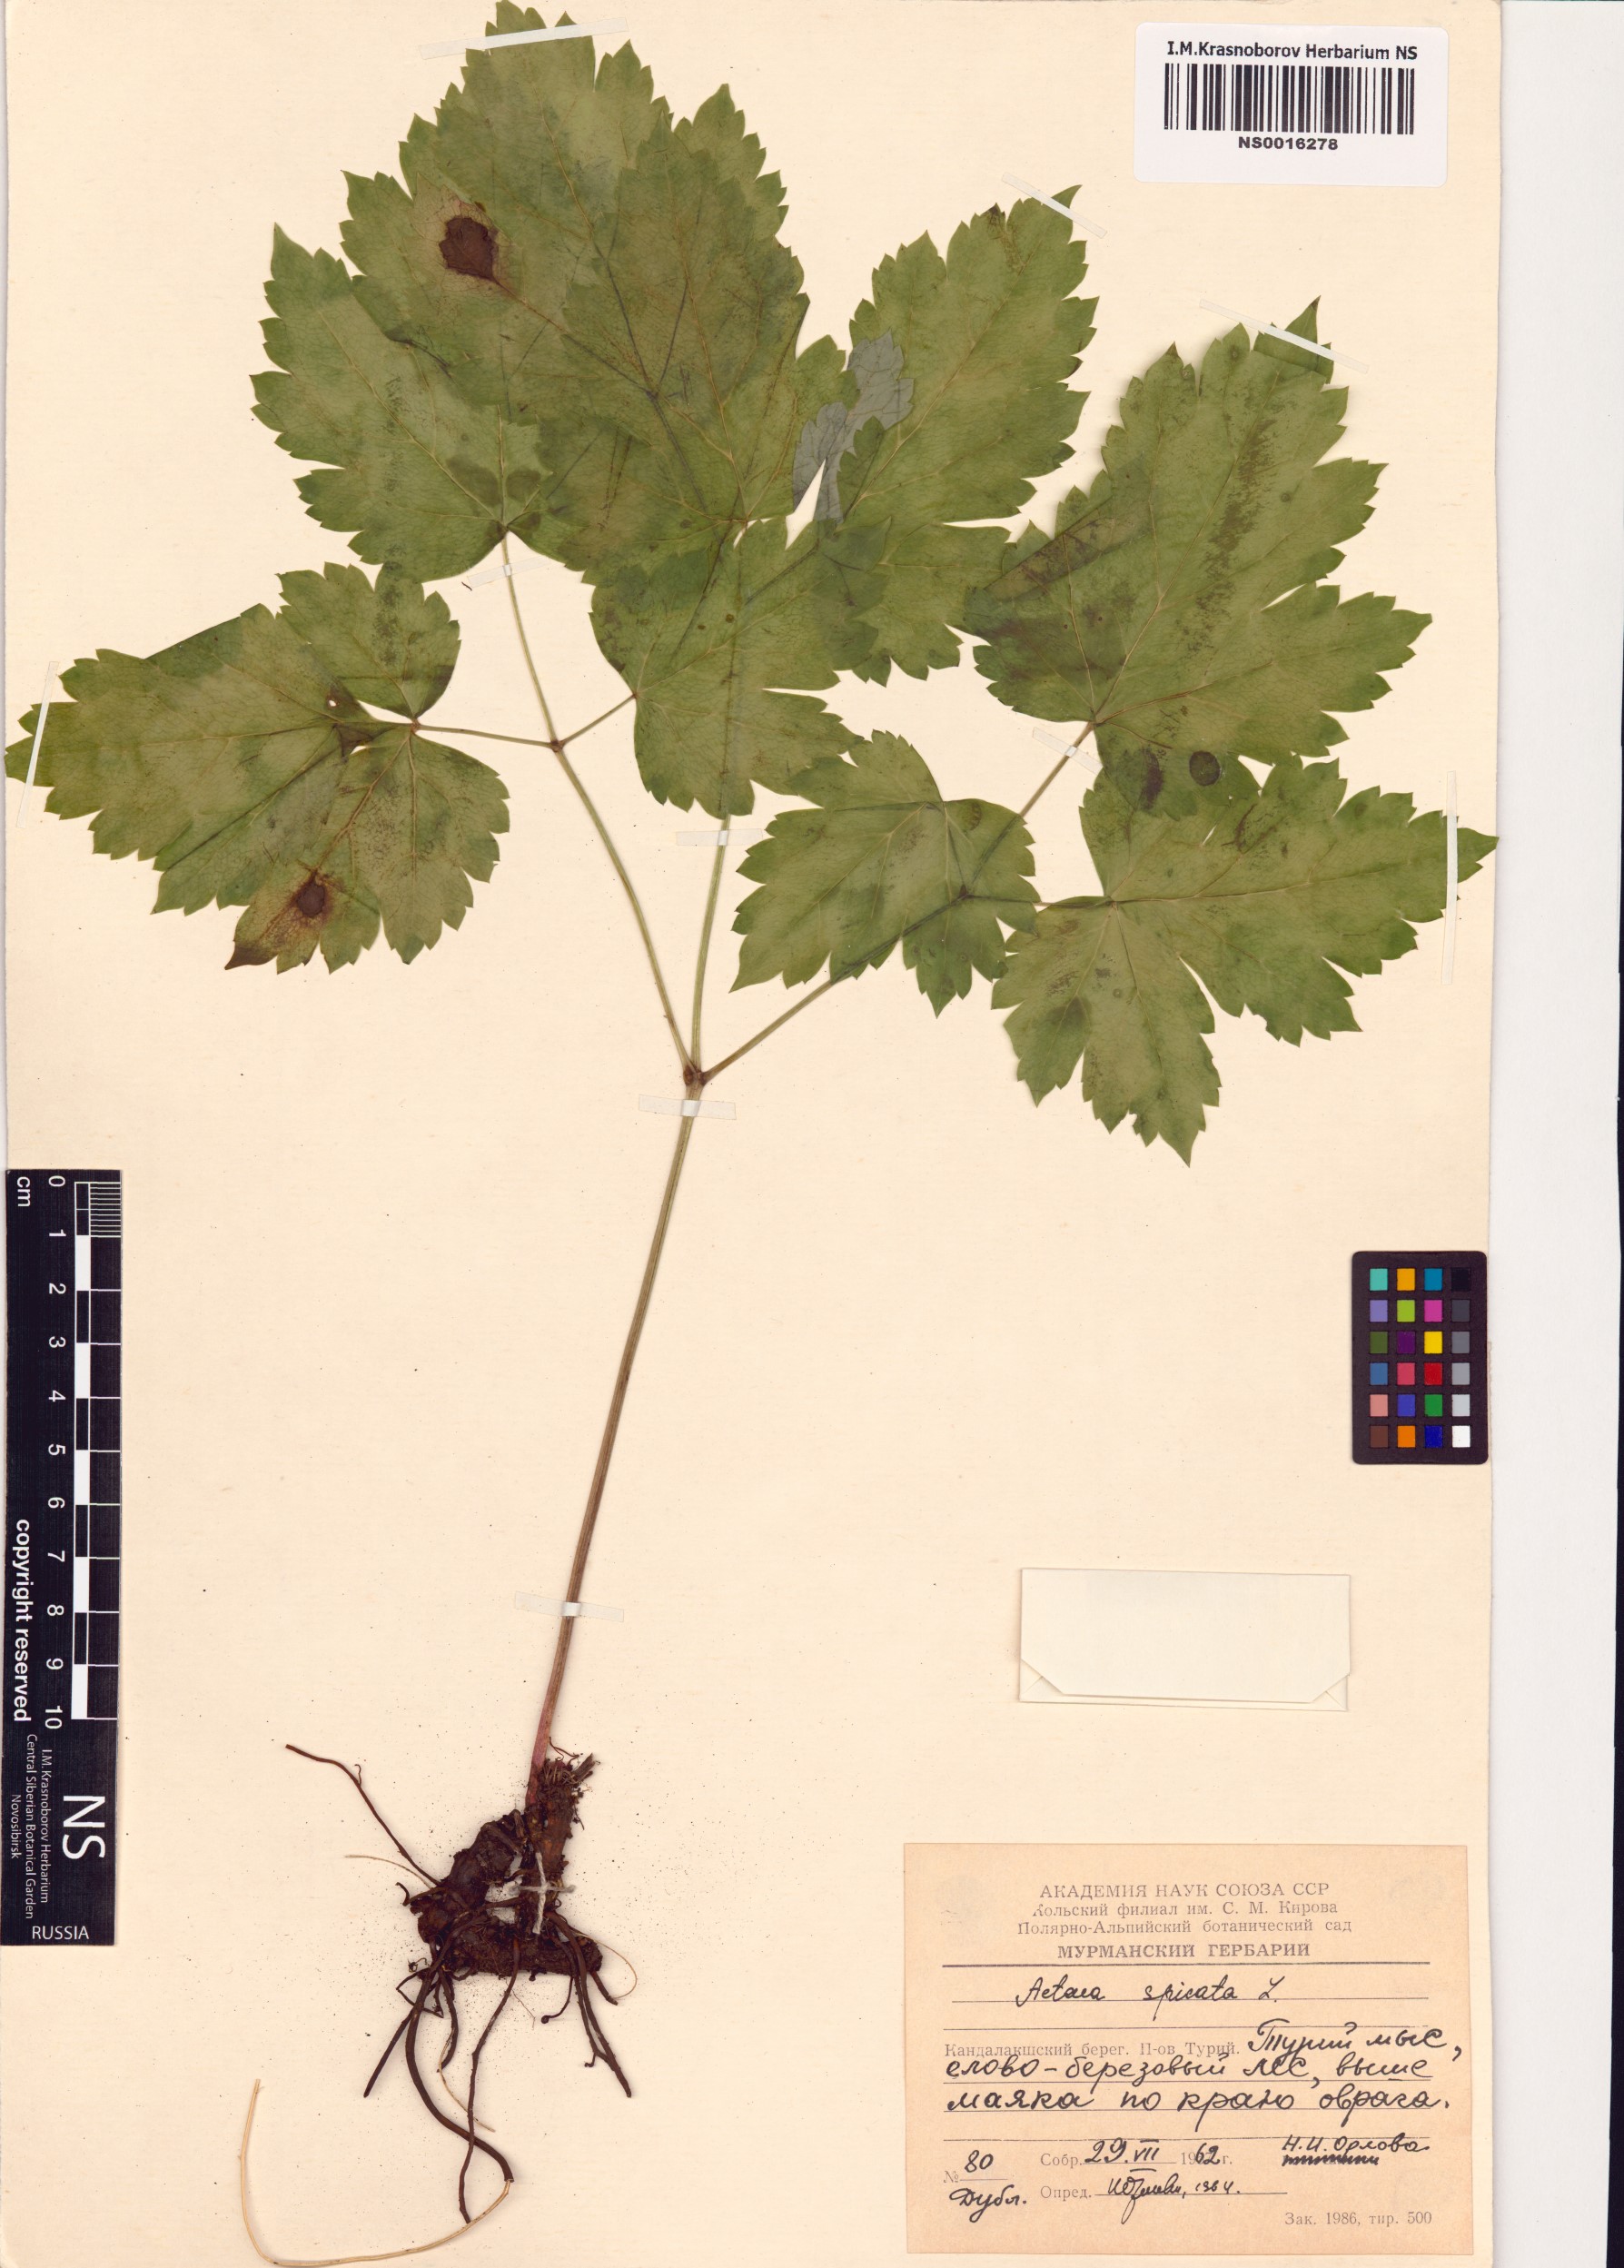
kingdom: Plantae
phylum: Tracheophyta
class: Magnoliopsida
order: Ranunculales
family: Ranunculaceae
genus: Actaea
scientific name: Actaea spicata
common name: Baneberry
